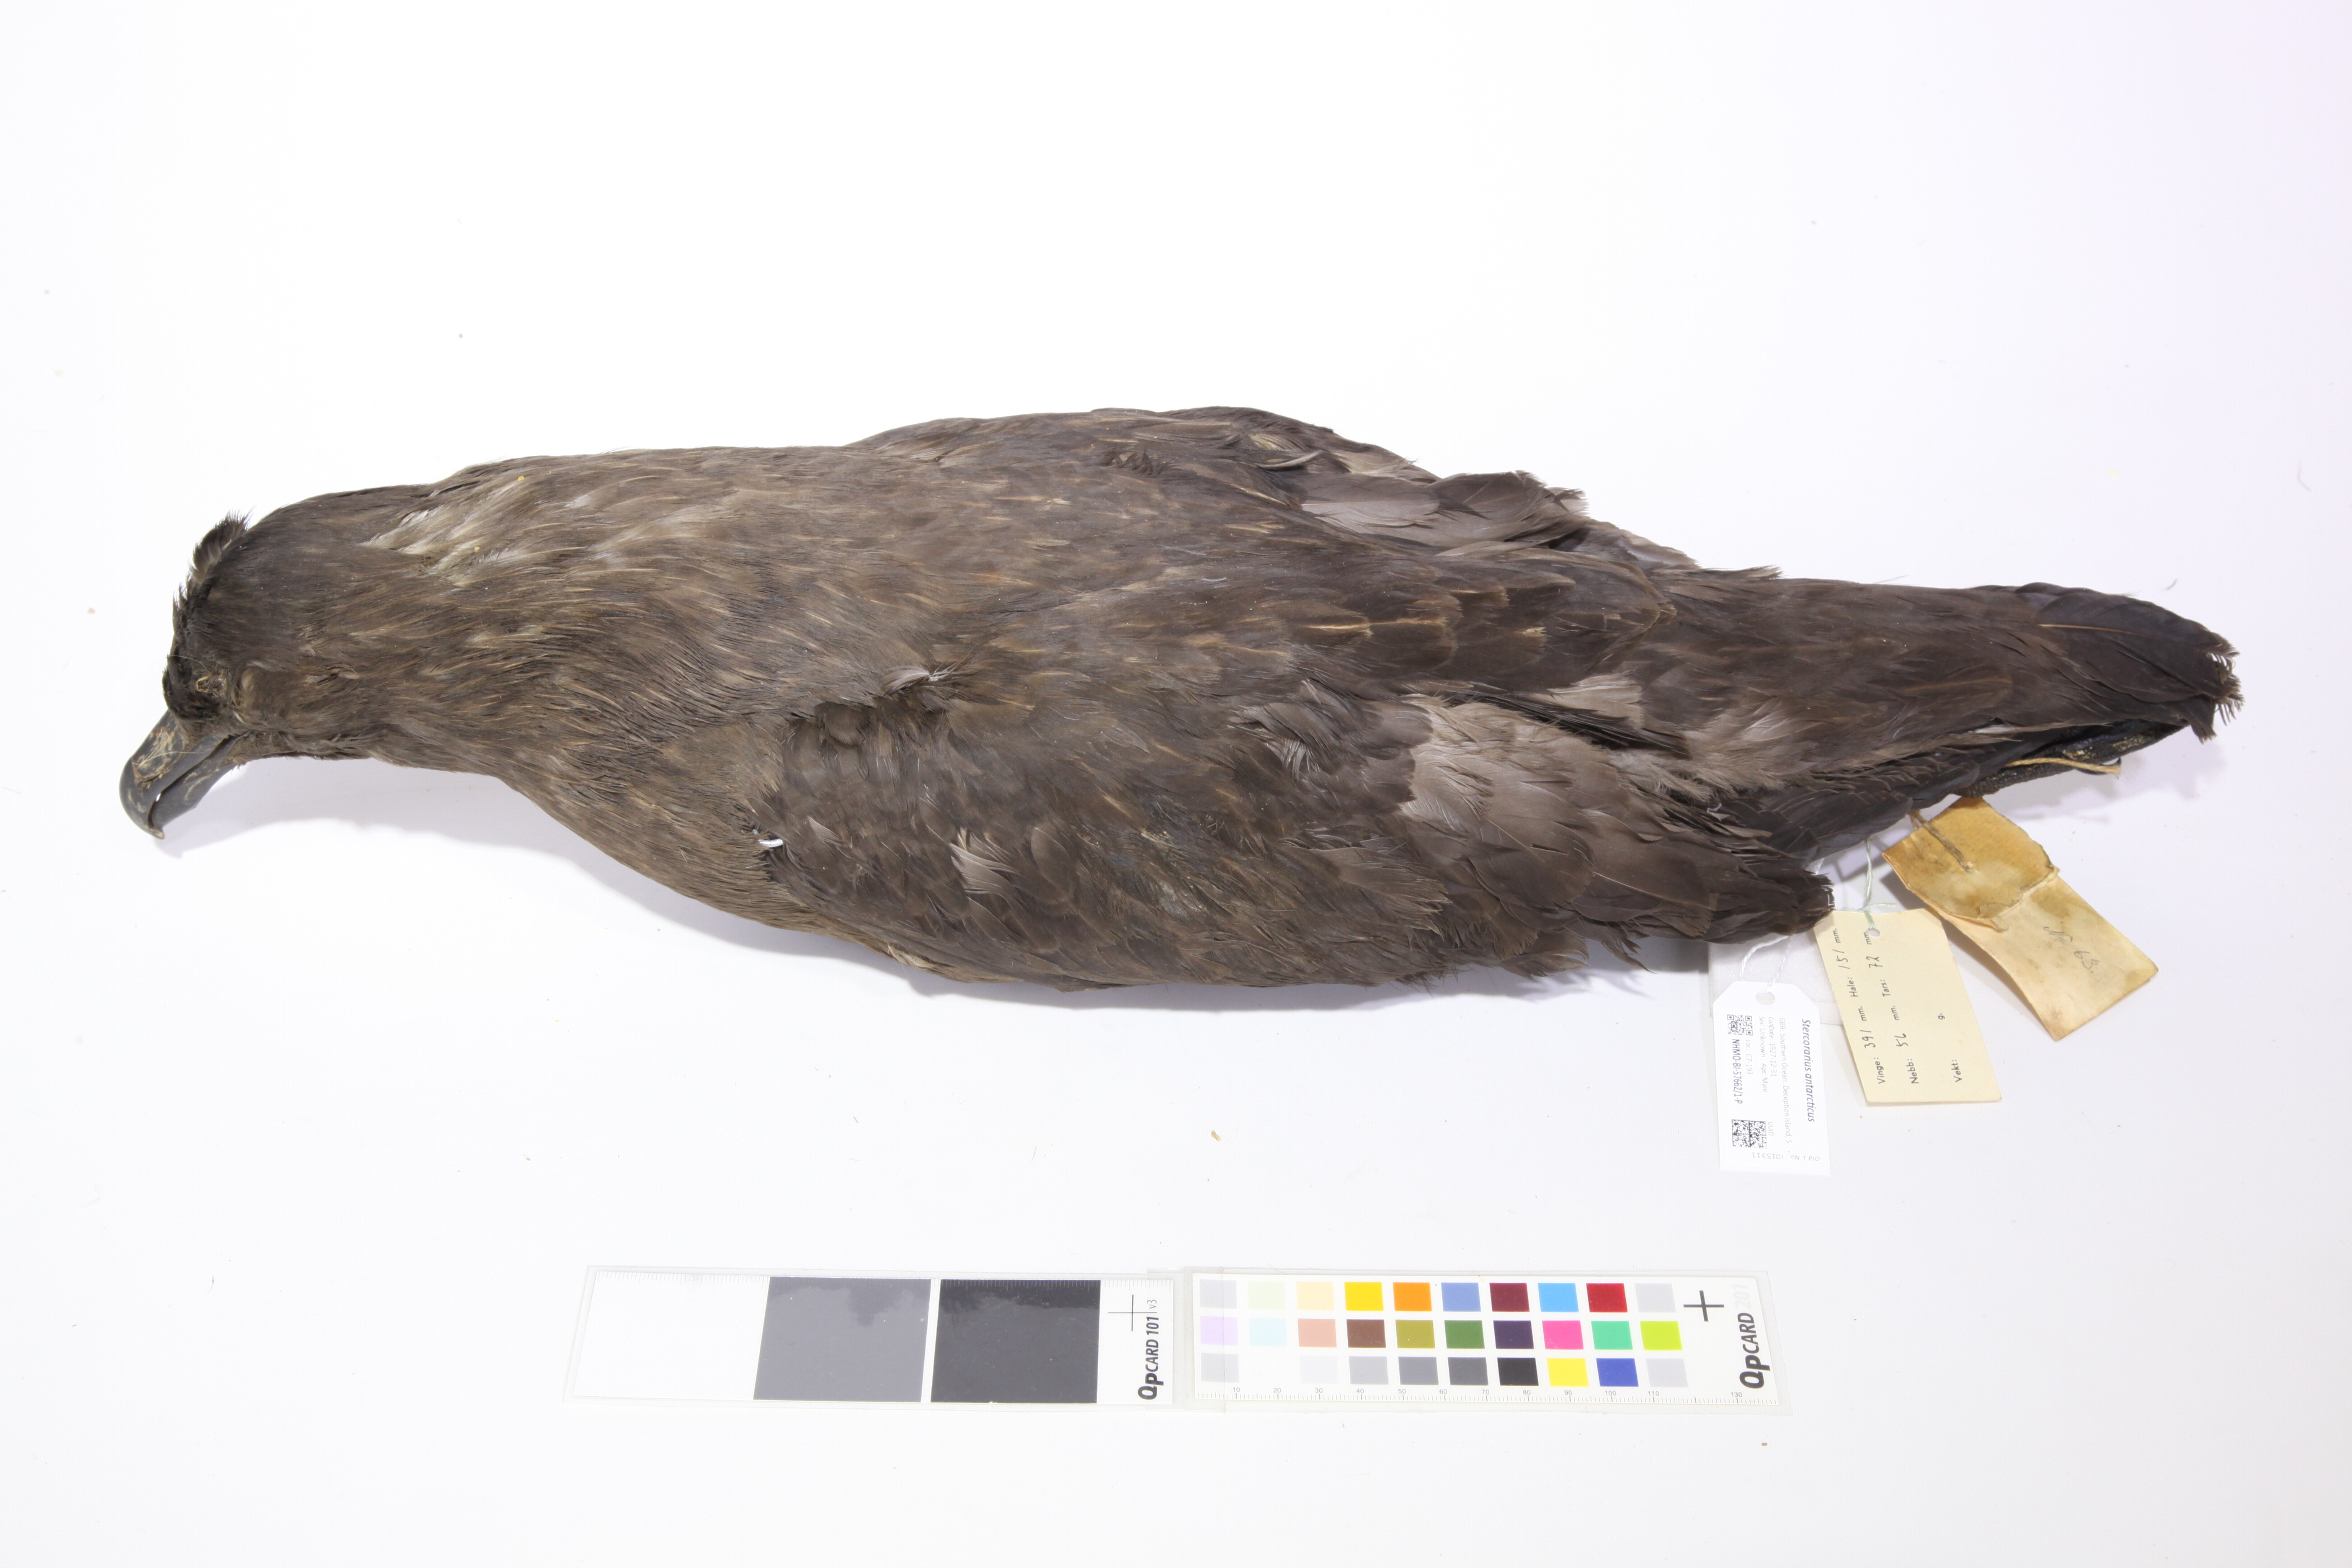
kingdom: Animalia
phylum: Chordata
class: Aves
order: Charadriiformes
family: Stercorariidae
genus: Stercorarius
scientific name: Stercorarius antarcticus
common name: Brown skua
